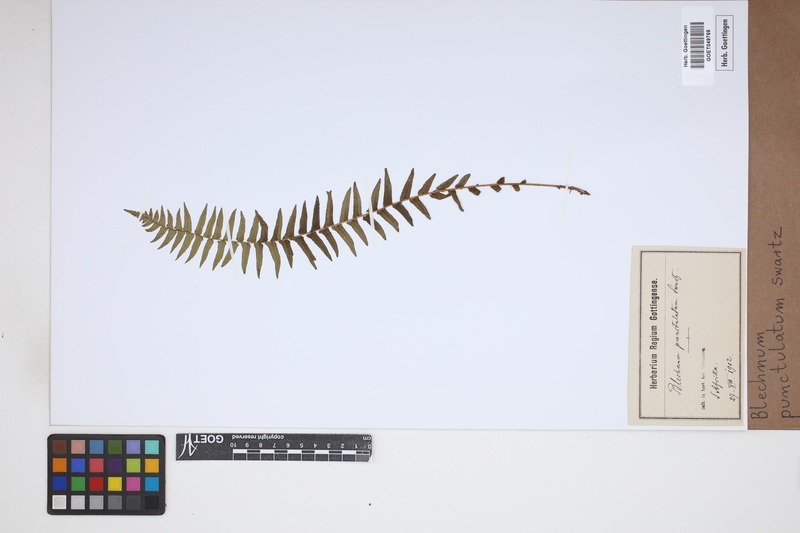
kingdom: Plantae
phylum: Tracheophyta
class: Polypodiopsida
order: Polypodiales
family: Blechnaceae
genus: Blechnum
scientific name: Blechnum punctulatum
